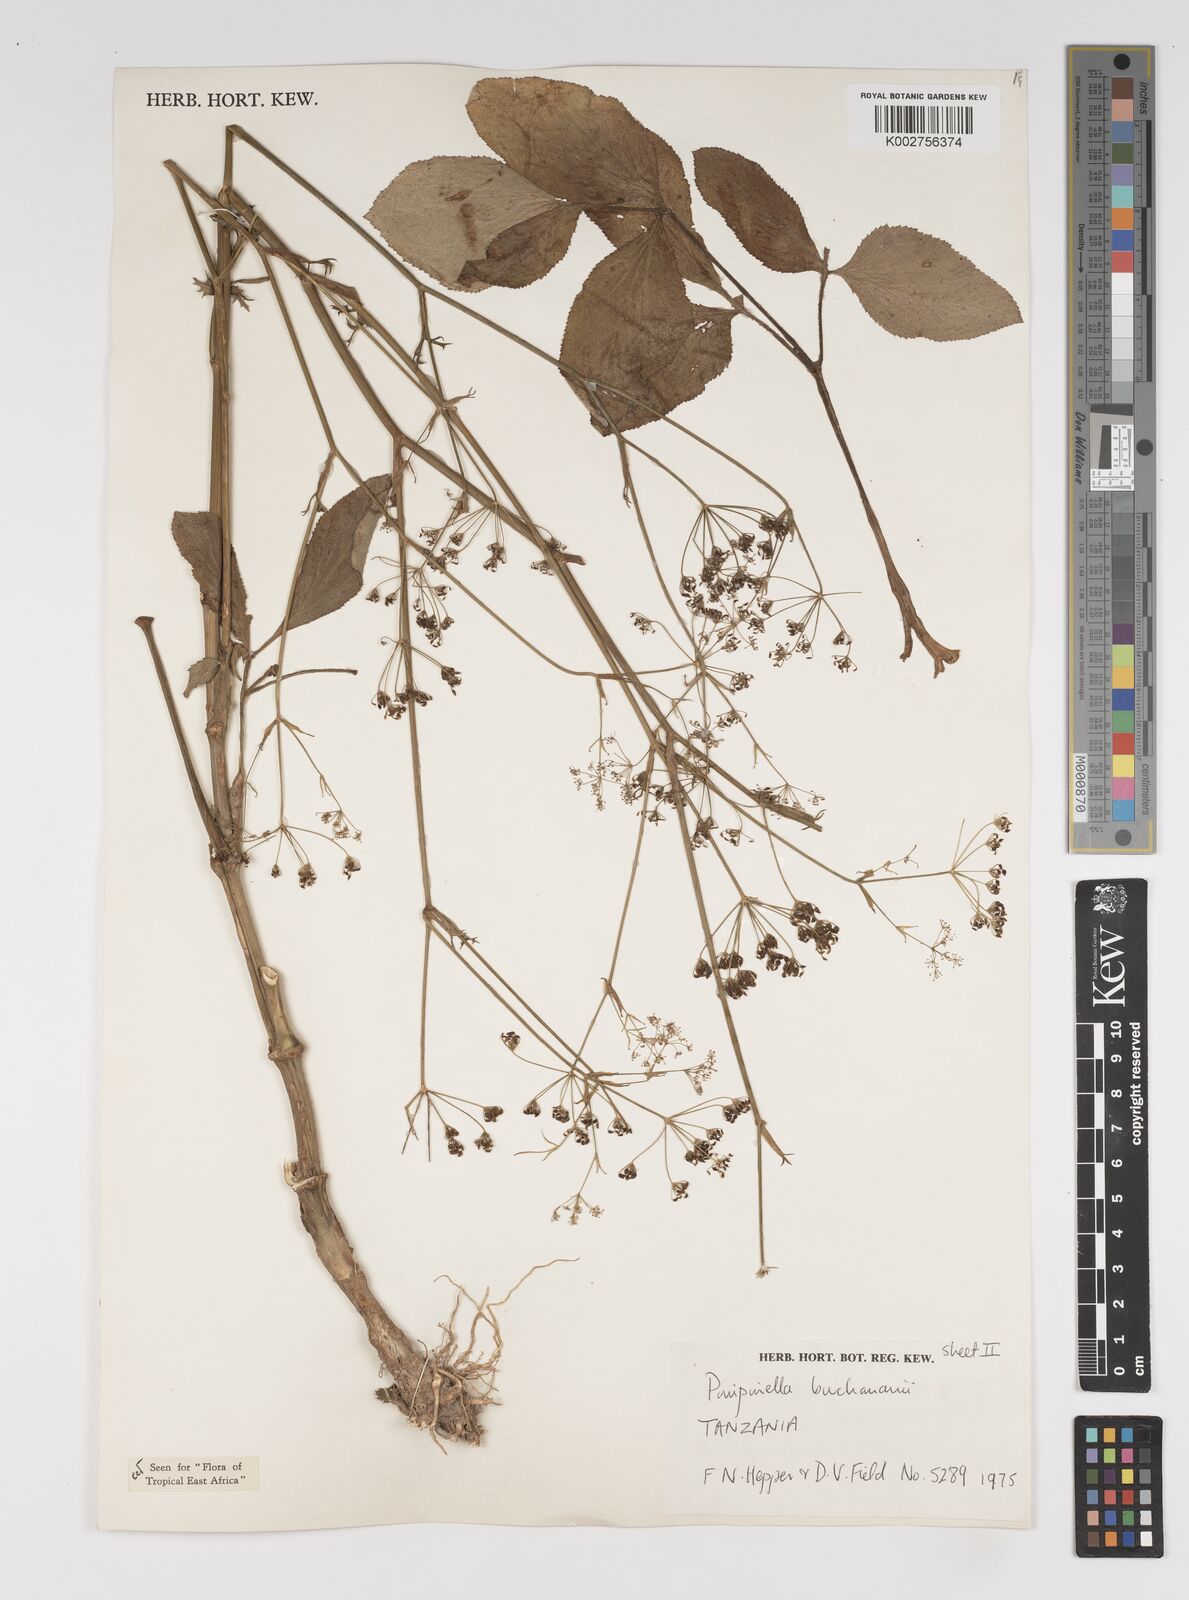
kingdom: Plantae
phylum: Tracheophyta
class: Magnoliopsida
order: Apiales
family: Apiaceae
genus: Pimpinella
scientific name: Pimpinella buchananii
